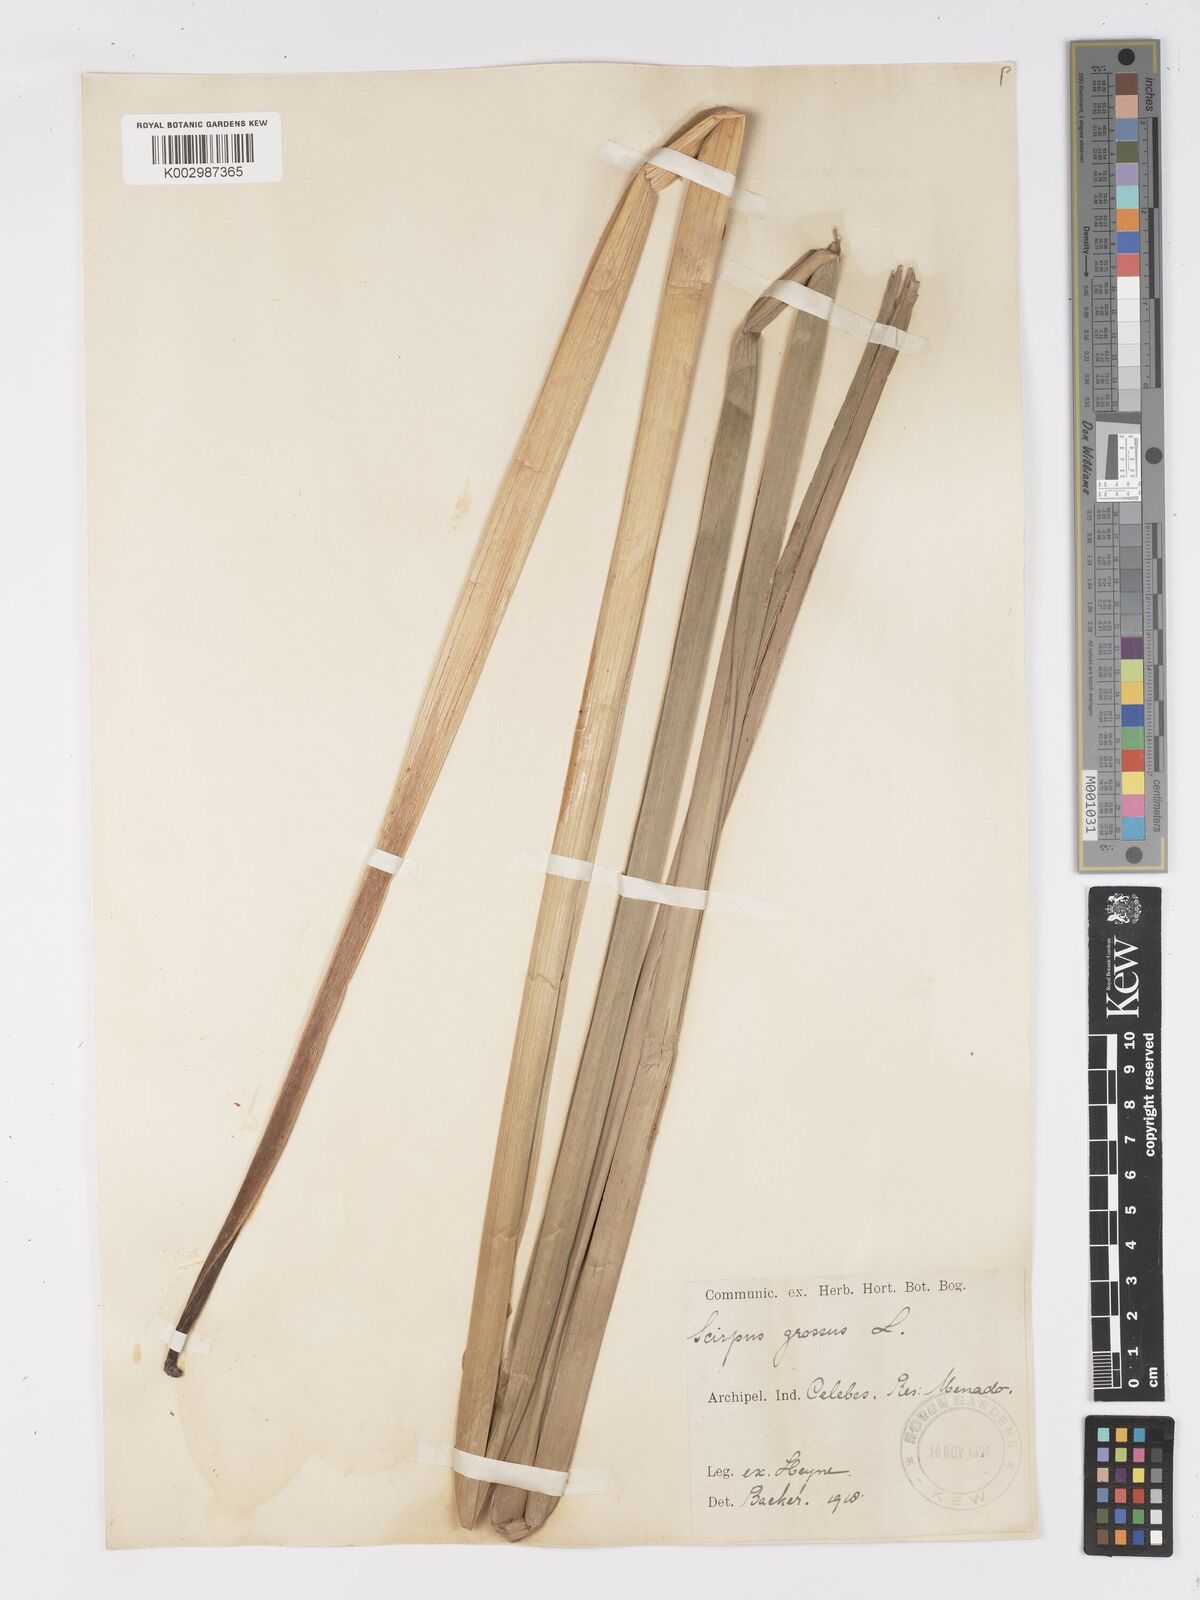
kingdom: Plantae
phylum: Tracheophyta
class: Liliopsida
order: Poales
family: Cyperaceae
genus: Actinoscirpus
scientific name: Actinoscirpus grossus
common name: Giant bur rush
